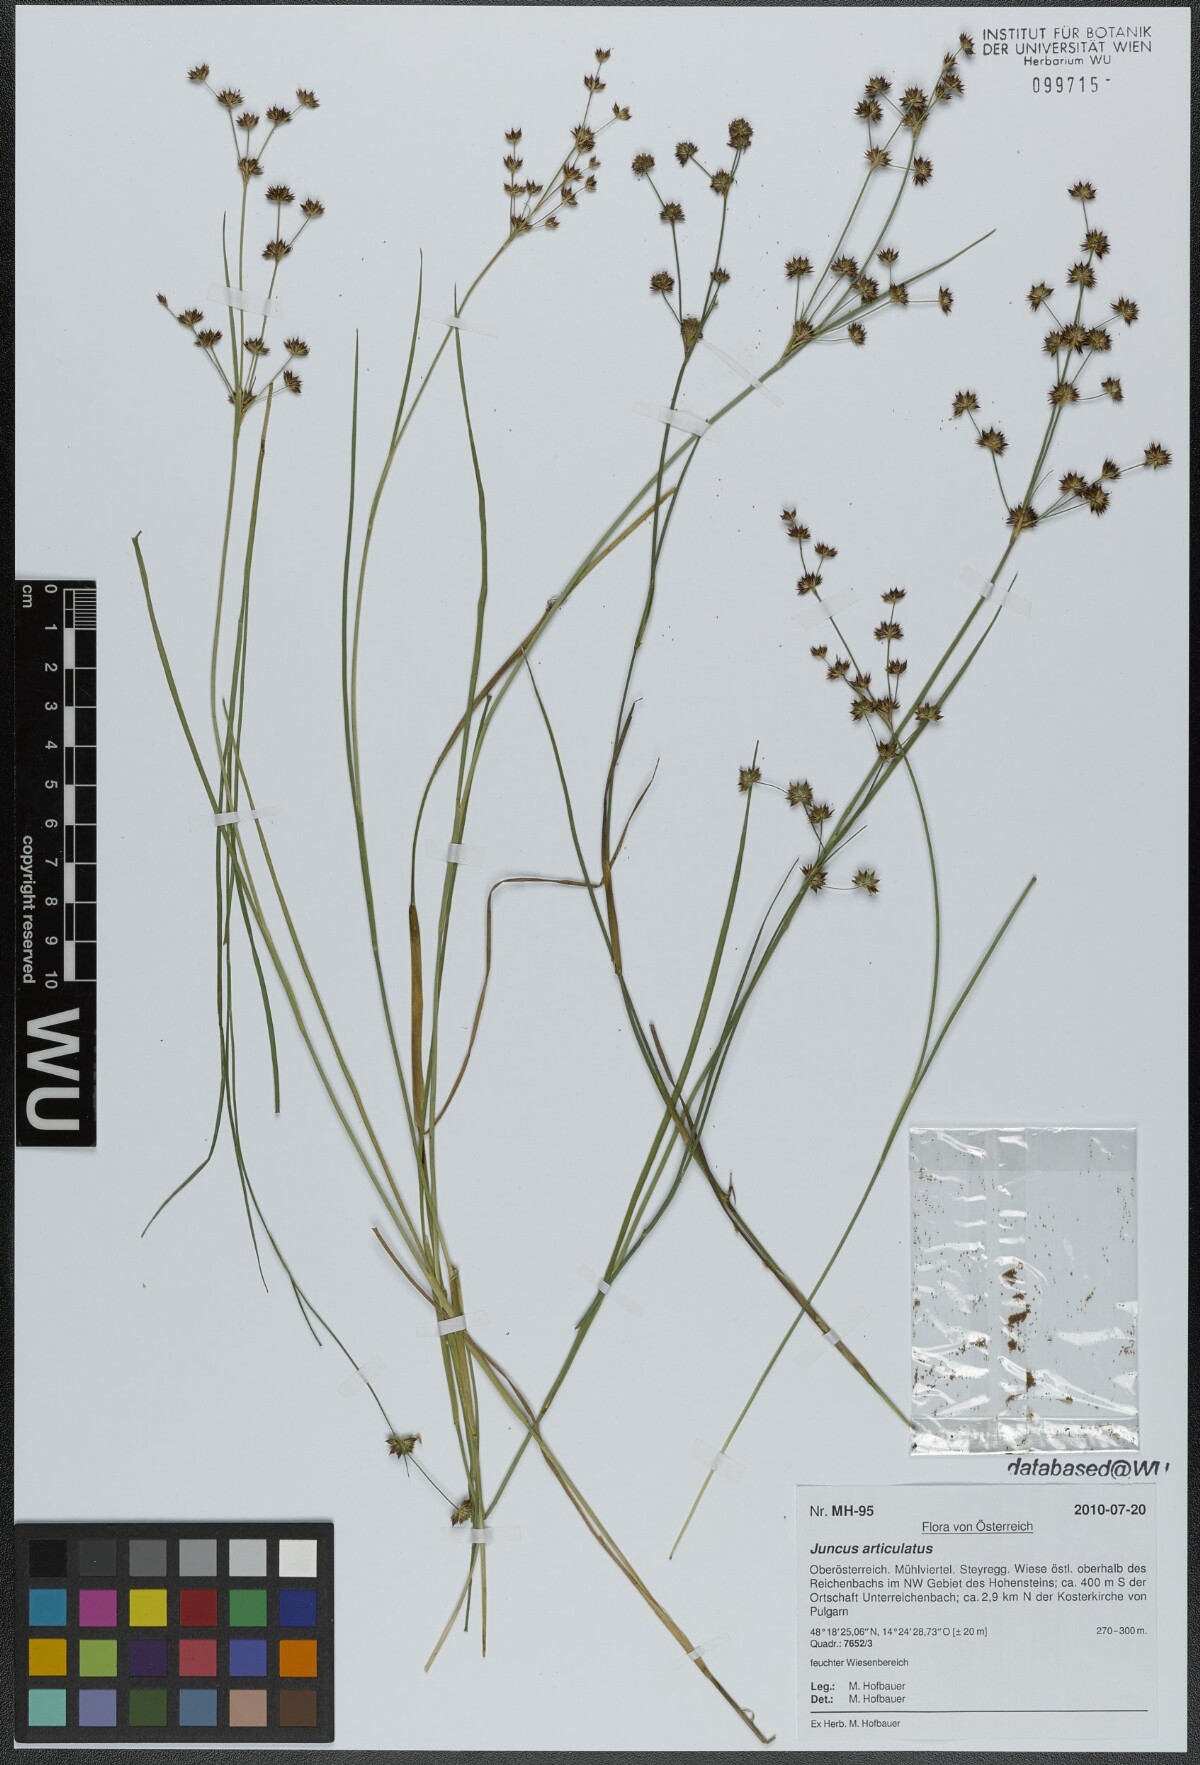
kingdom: Plantae
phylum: Tracheophyta
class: Liliopsida
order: Poales
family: Juncaceae
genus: Juncus
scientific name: Juncus articulatus
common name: Jointed rush
